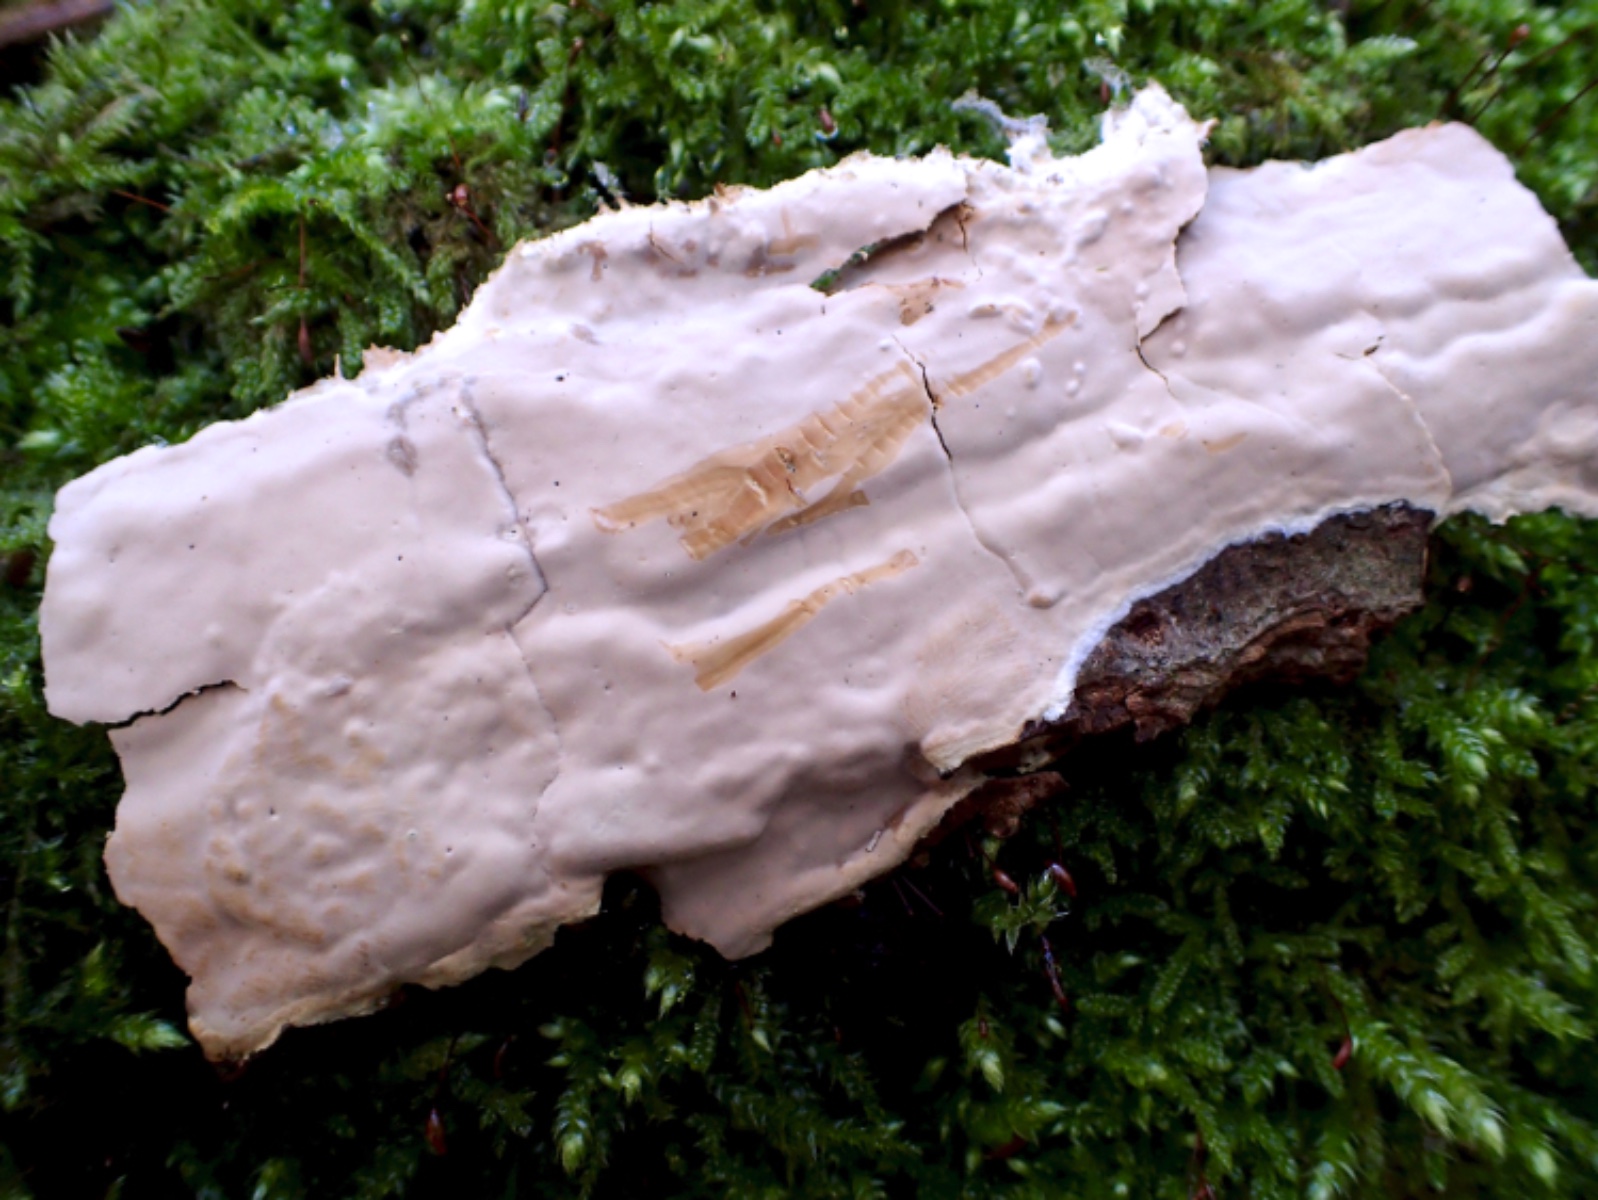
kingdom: Fungi
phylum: Basidiomycota
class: Agaricomycetes
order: Russulales
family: Peniophoraceae
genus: Scytinostroma
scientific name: Scytinostroma hemidichophyticum
